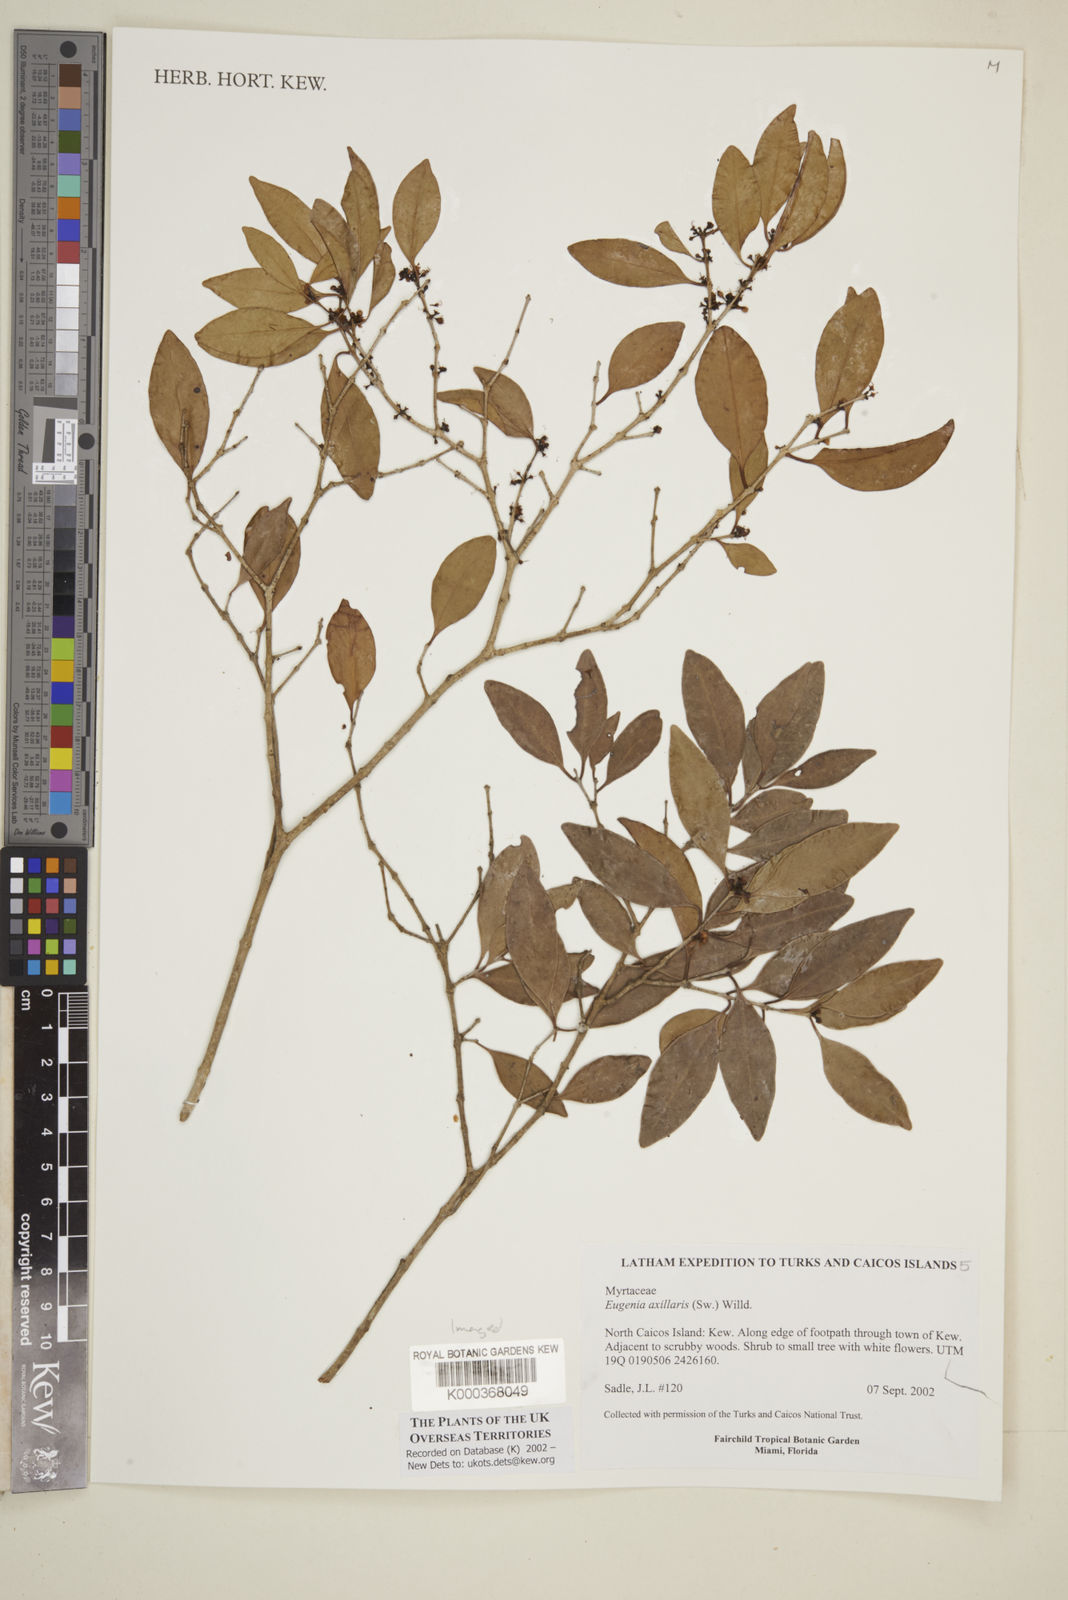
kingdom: Plantae
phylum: Tracheophyta
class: Magnoliopsida
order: Myrtales
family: Myrtaceae
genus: Eugenia
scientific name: Eugenia axillaris
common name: Choaky berry
